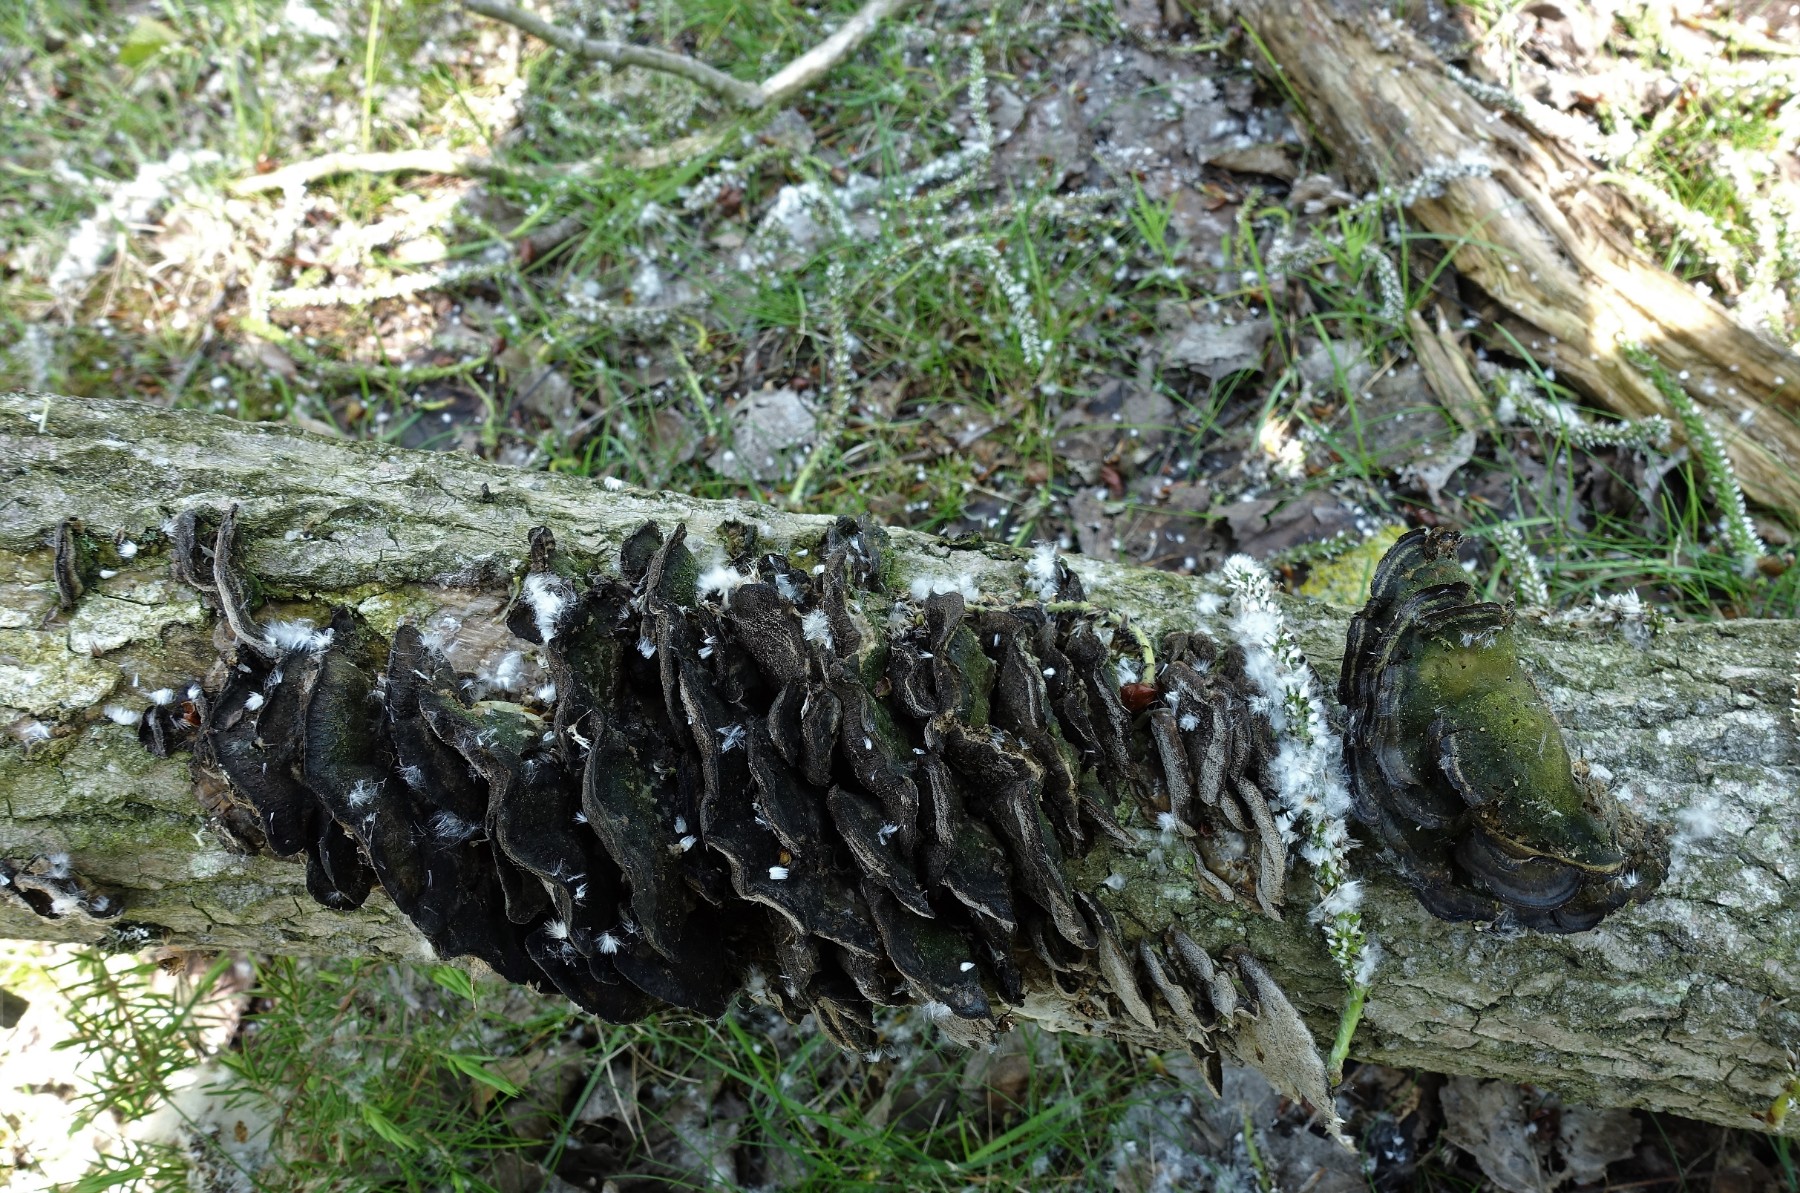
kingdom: Fungi
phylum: Basidiomycota
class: Agaricomycetes
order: Hymenochaetales
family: Oxyporaceae
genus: Oxyporus
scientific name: Oxyporus populinus
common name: sammenvokset trylleporesvamp
